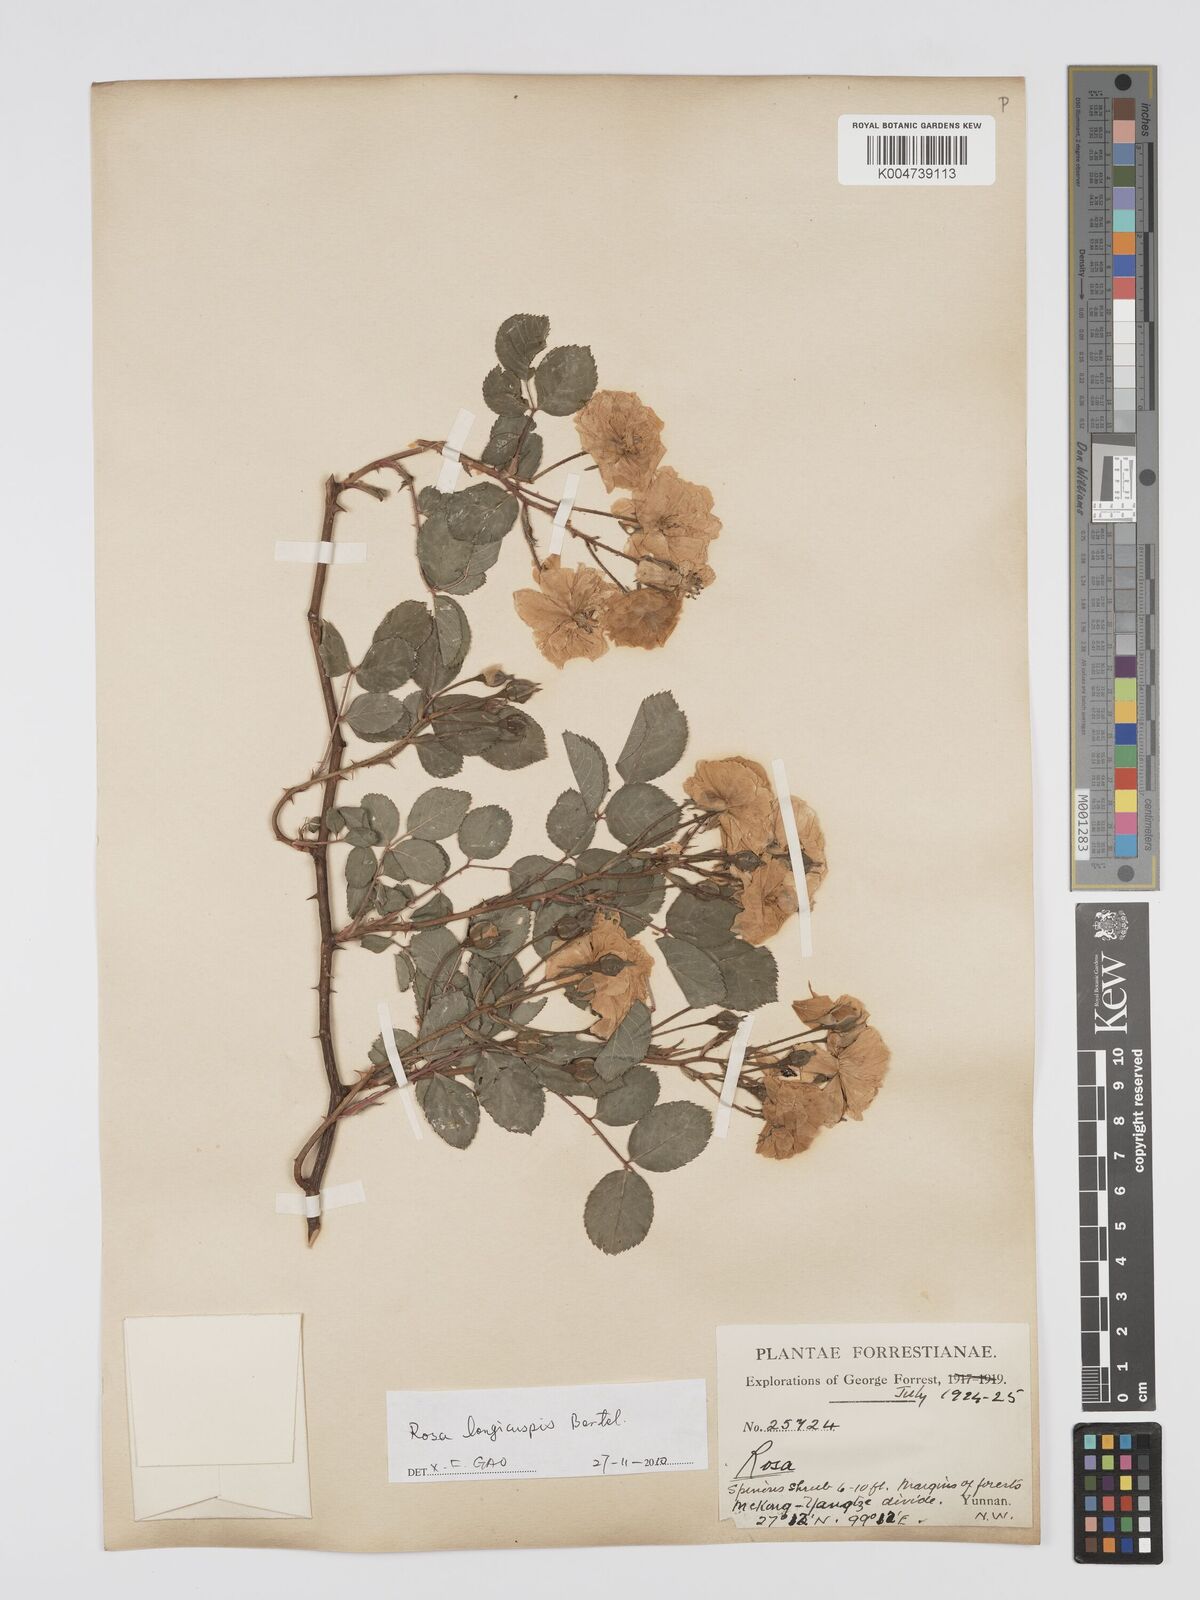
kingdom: Plantae
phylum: Tracheophyta
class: Magnoliopsida
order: Rosales
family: Rosaceae
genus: Rosa
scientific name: Rosa longicuspis
